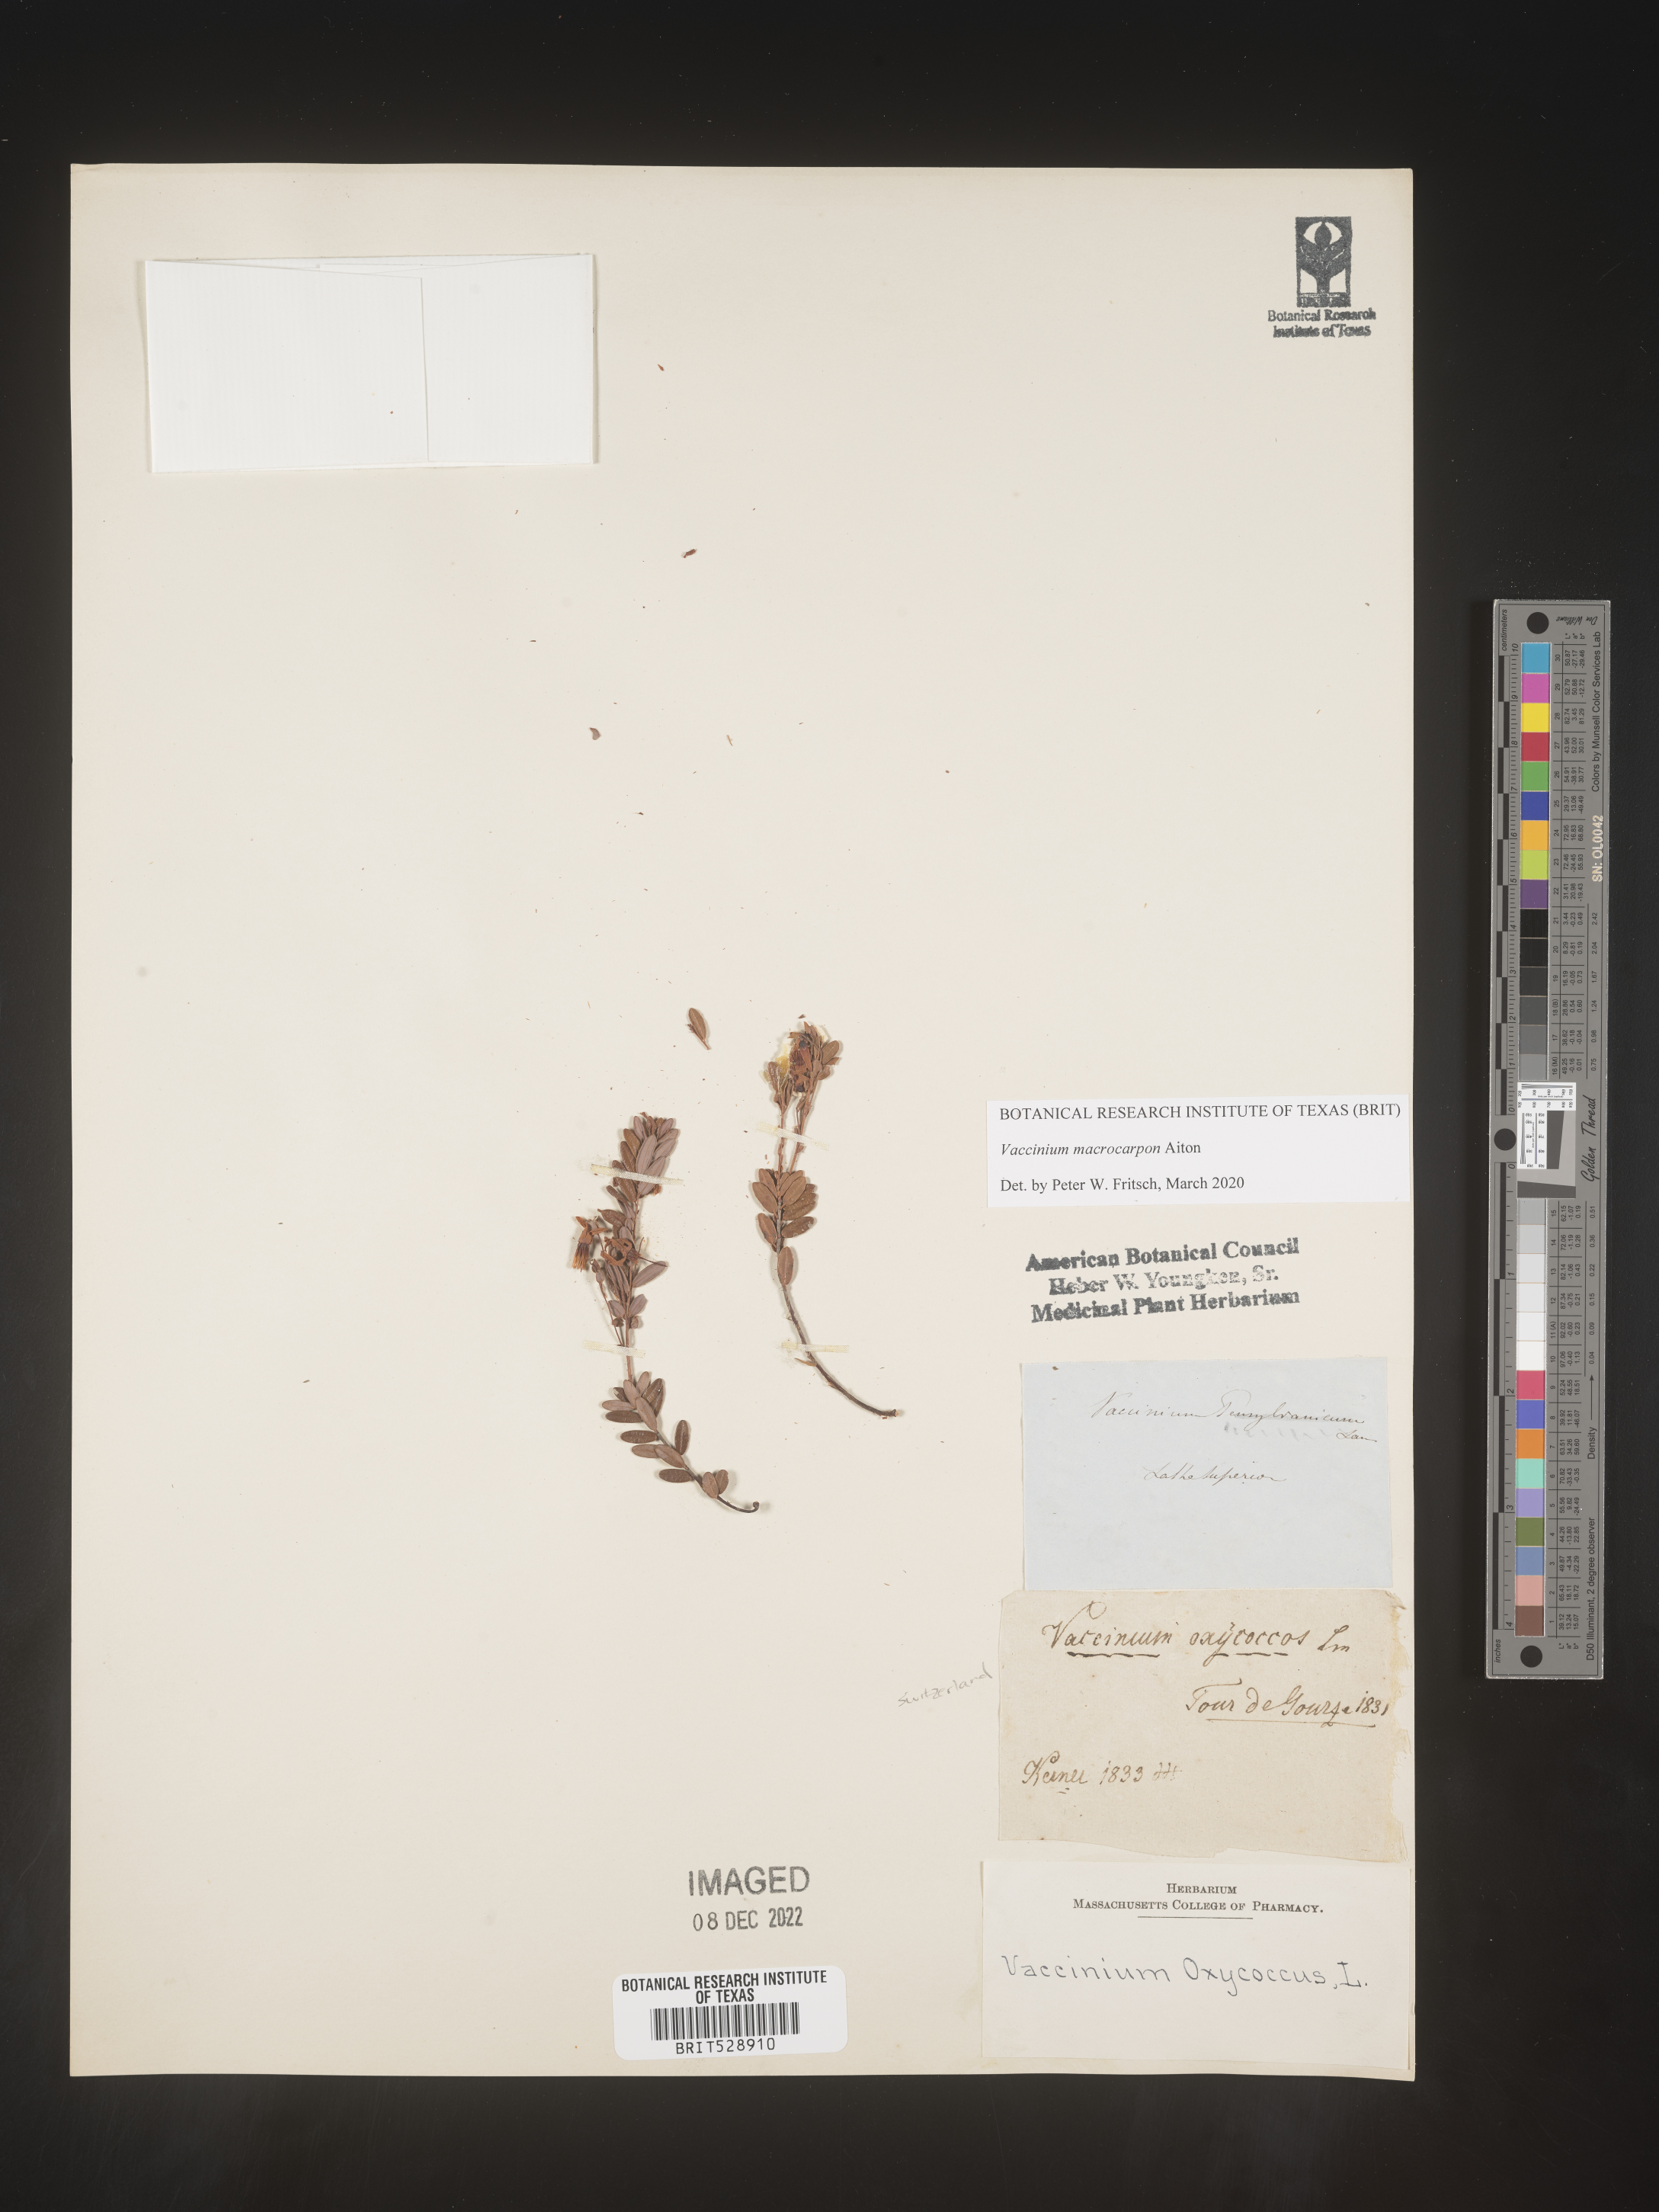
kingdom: Plantae
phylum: Tracheophyta
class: Magnoliopsida
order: Ericales
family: Ericaceae
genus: Vaccinium
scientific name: Vaccinium macrocarpon
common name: American cranberry
